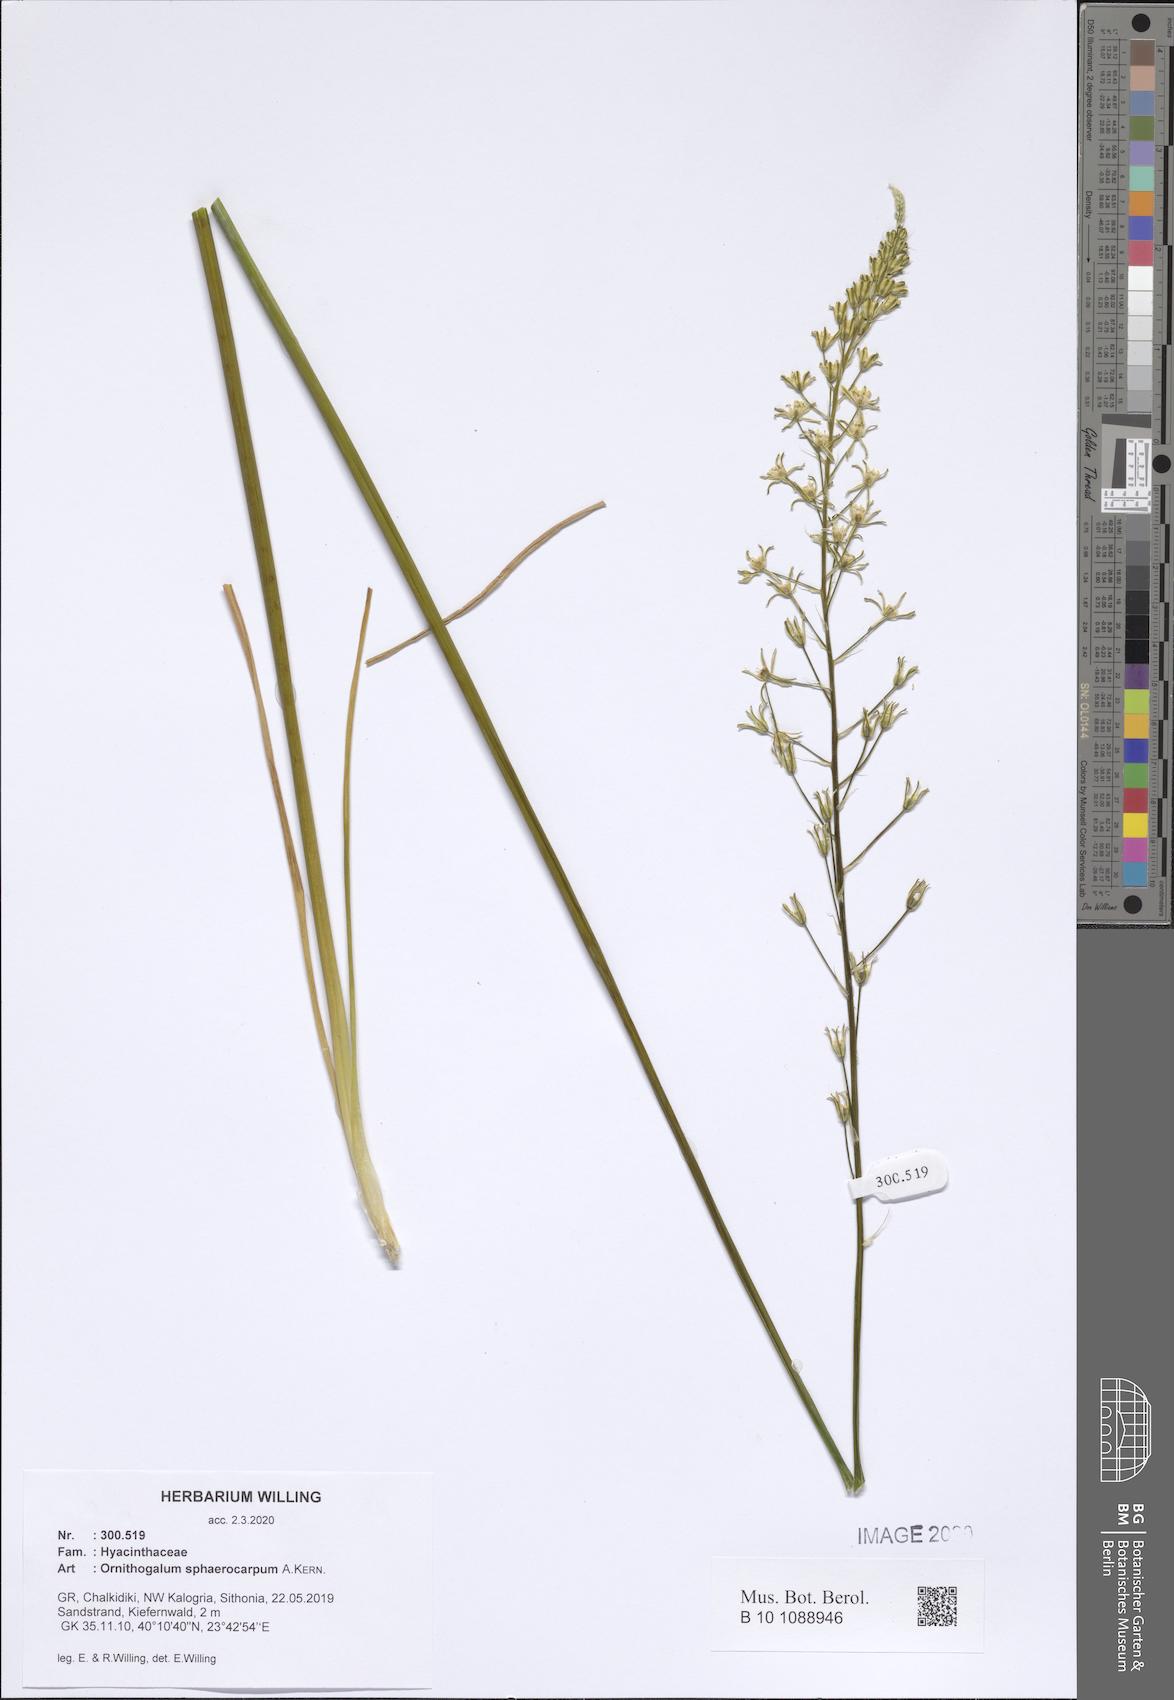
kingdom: Plantae
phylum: Tracheophyta
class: Liliopsida
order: Asparagales
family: Asparagaceae
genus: Ornithogalum
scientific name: Ornithogalum sphaerocarpum
